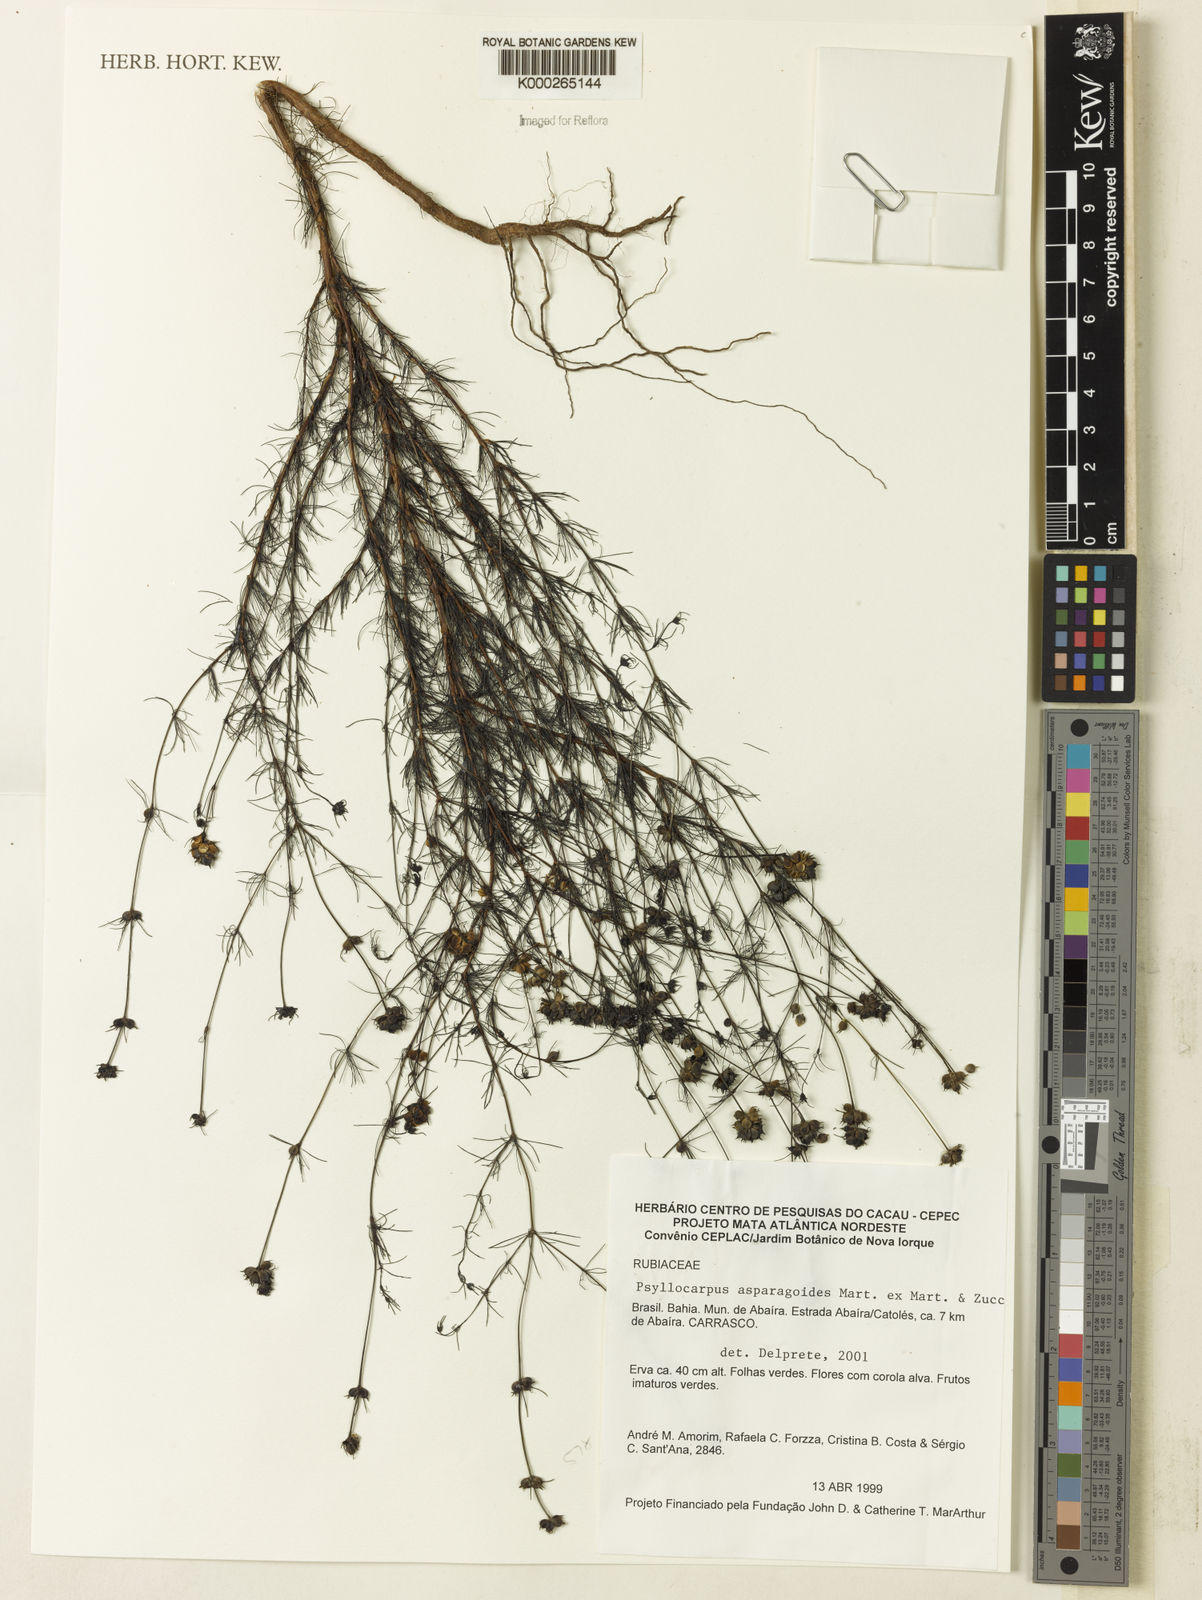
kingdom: Plantae
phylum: Tracheophyta
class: Magnoliopsida
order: Gentianales
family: Rubiaceae
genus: Psyllocarpus
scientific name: Psyllocarpus asparagoides
